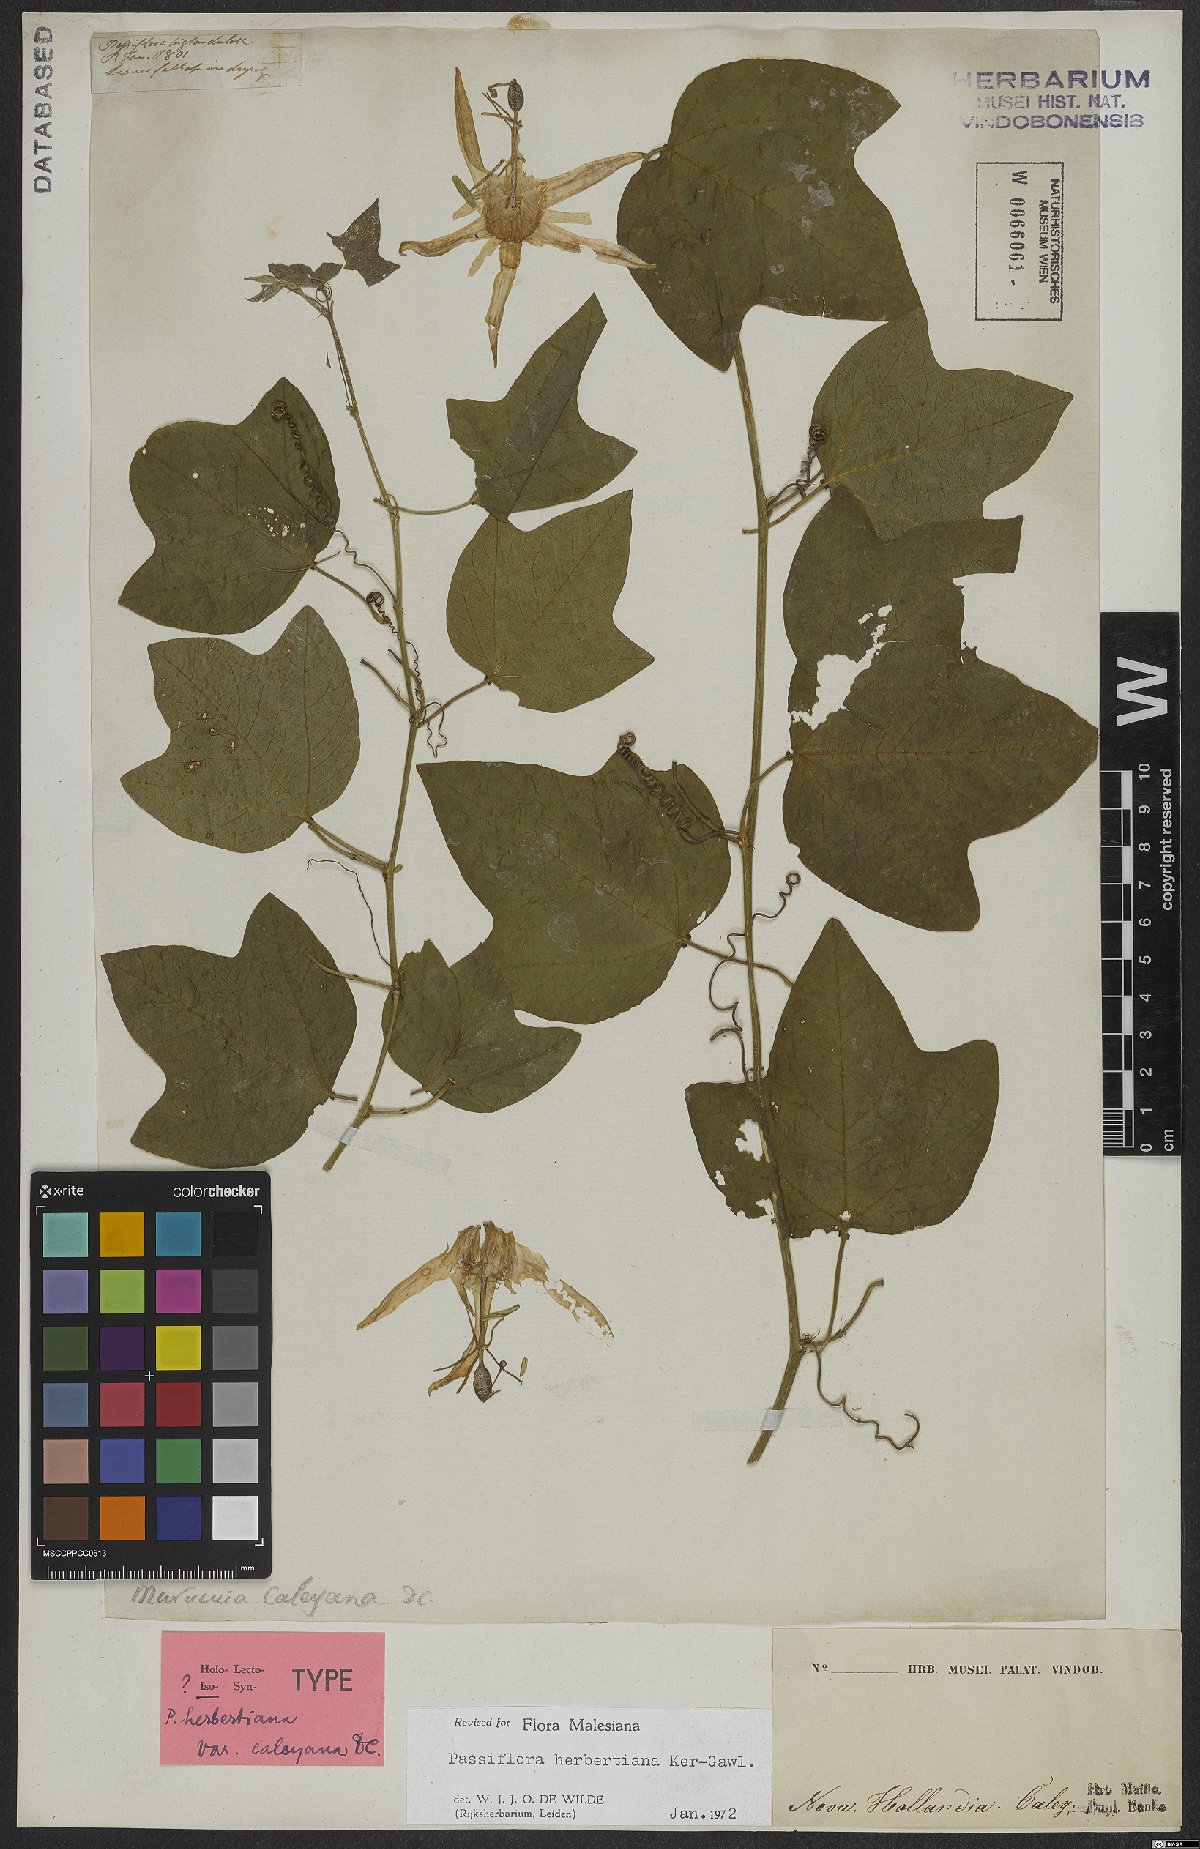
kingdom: Plantae
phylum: Tracheophyta
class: Magnoliopsida
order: Malpighiales
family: Passifloraceae
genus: Passiflora
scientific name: Passiflora herbertiana
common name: Yellow passionflower
